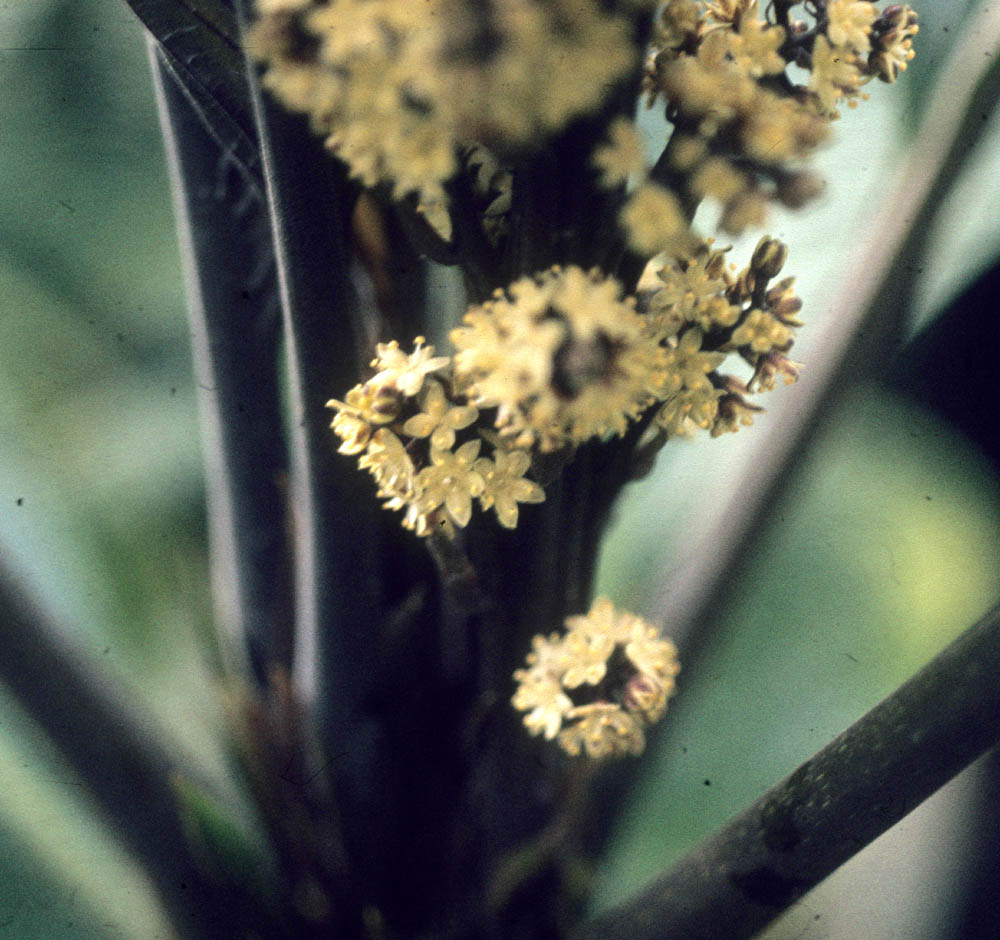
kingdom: Plantae
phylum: Tracheophyta
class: Magnoliopsida
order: Ericales
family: Primulaceae
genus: Cybianthus
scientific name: Cybianthus simplex
